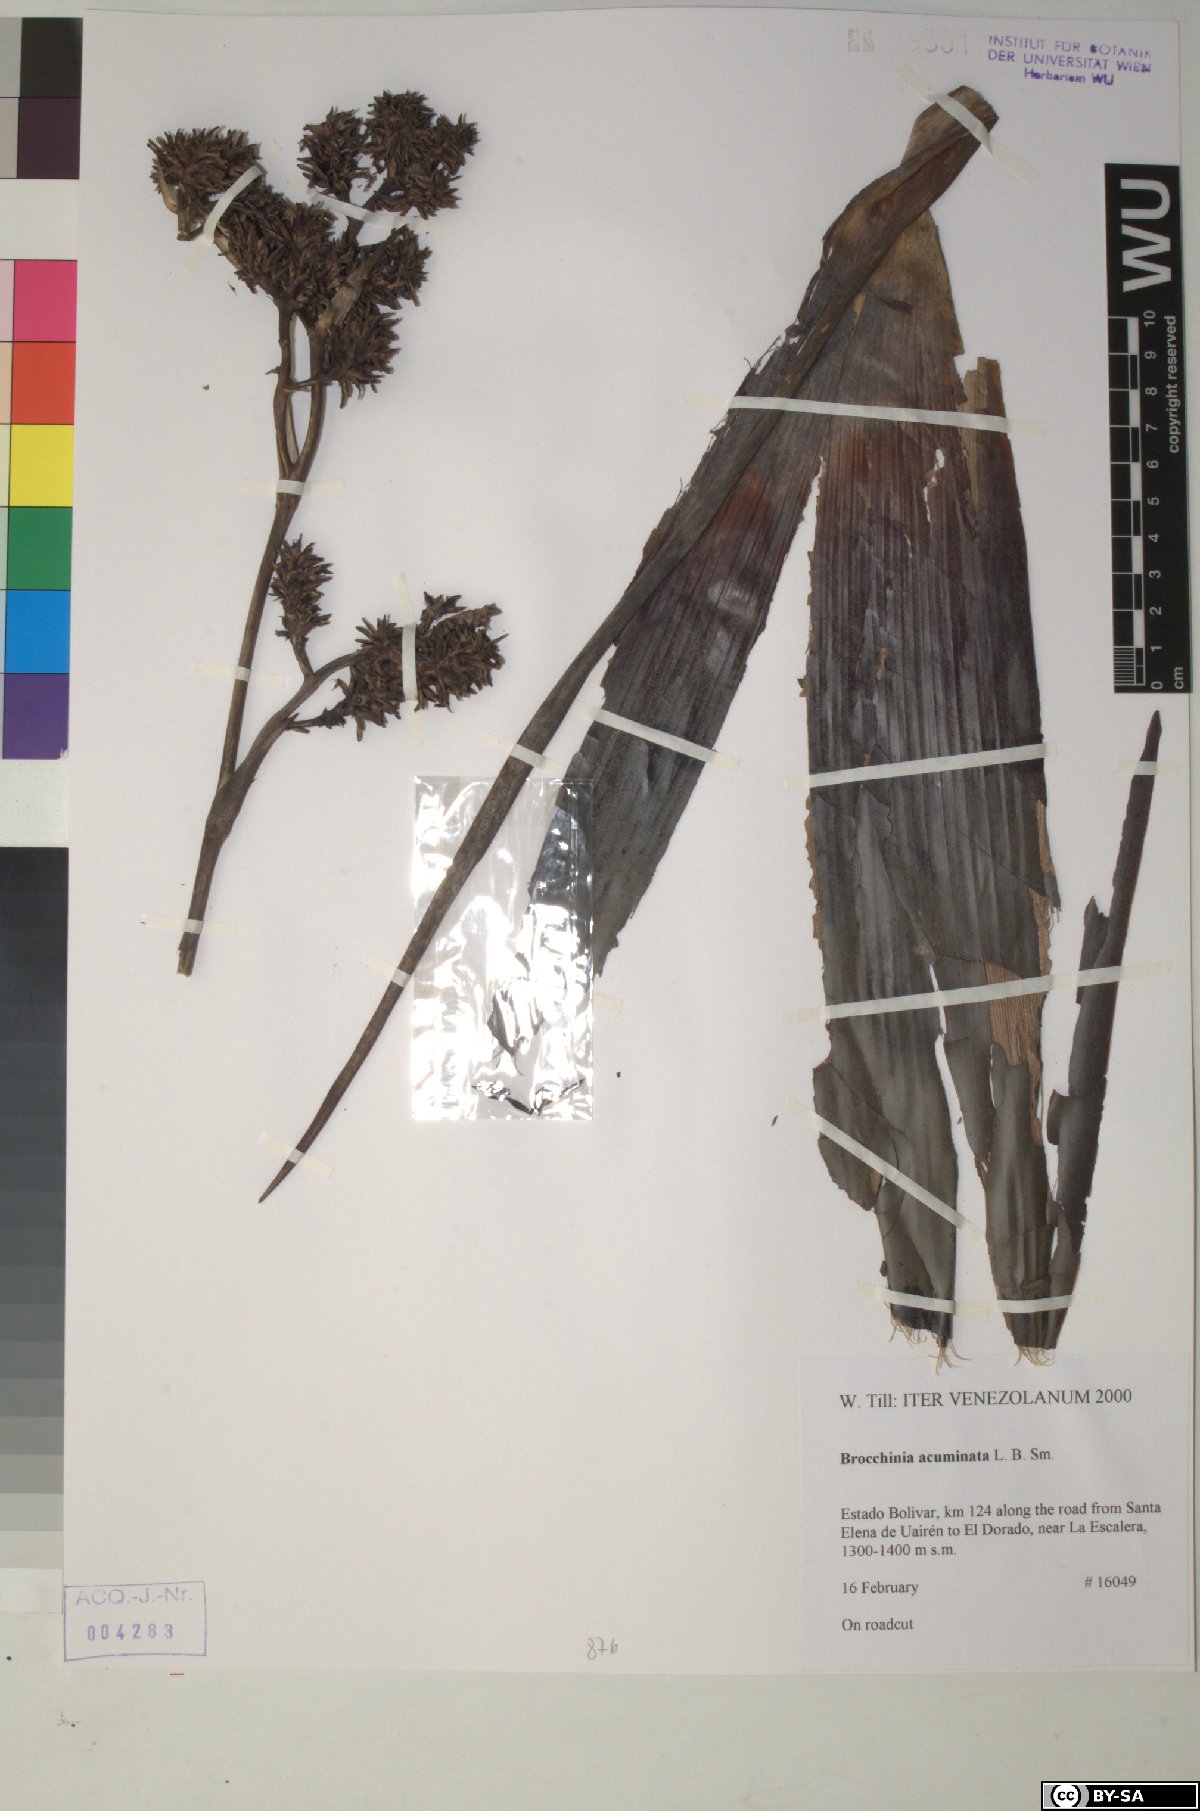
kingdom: Plantae
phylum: Tracheophyta
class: Liliopsida
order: Poales
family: Bromeliaceae
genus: Brocchinia
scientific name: Brocchinia acuminata
